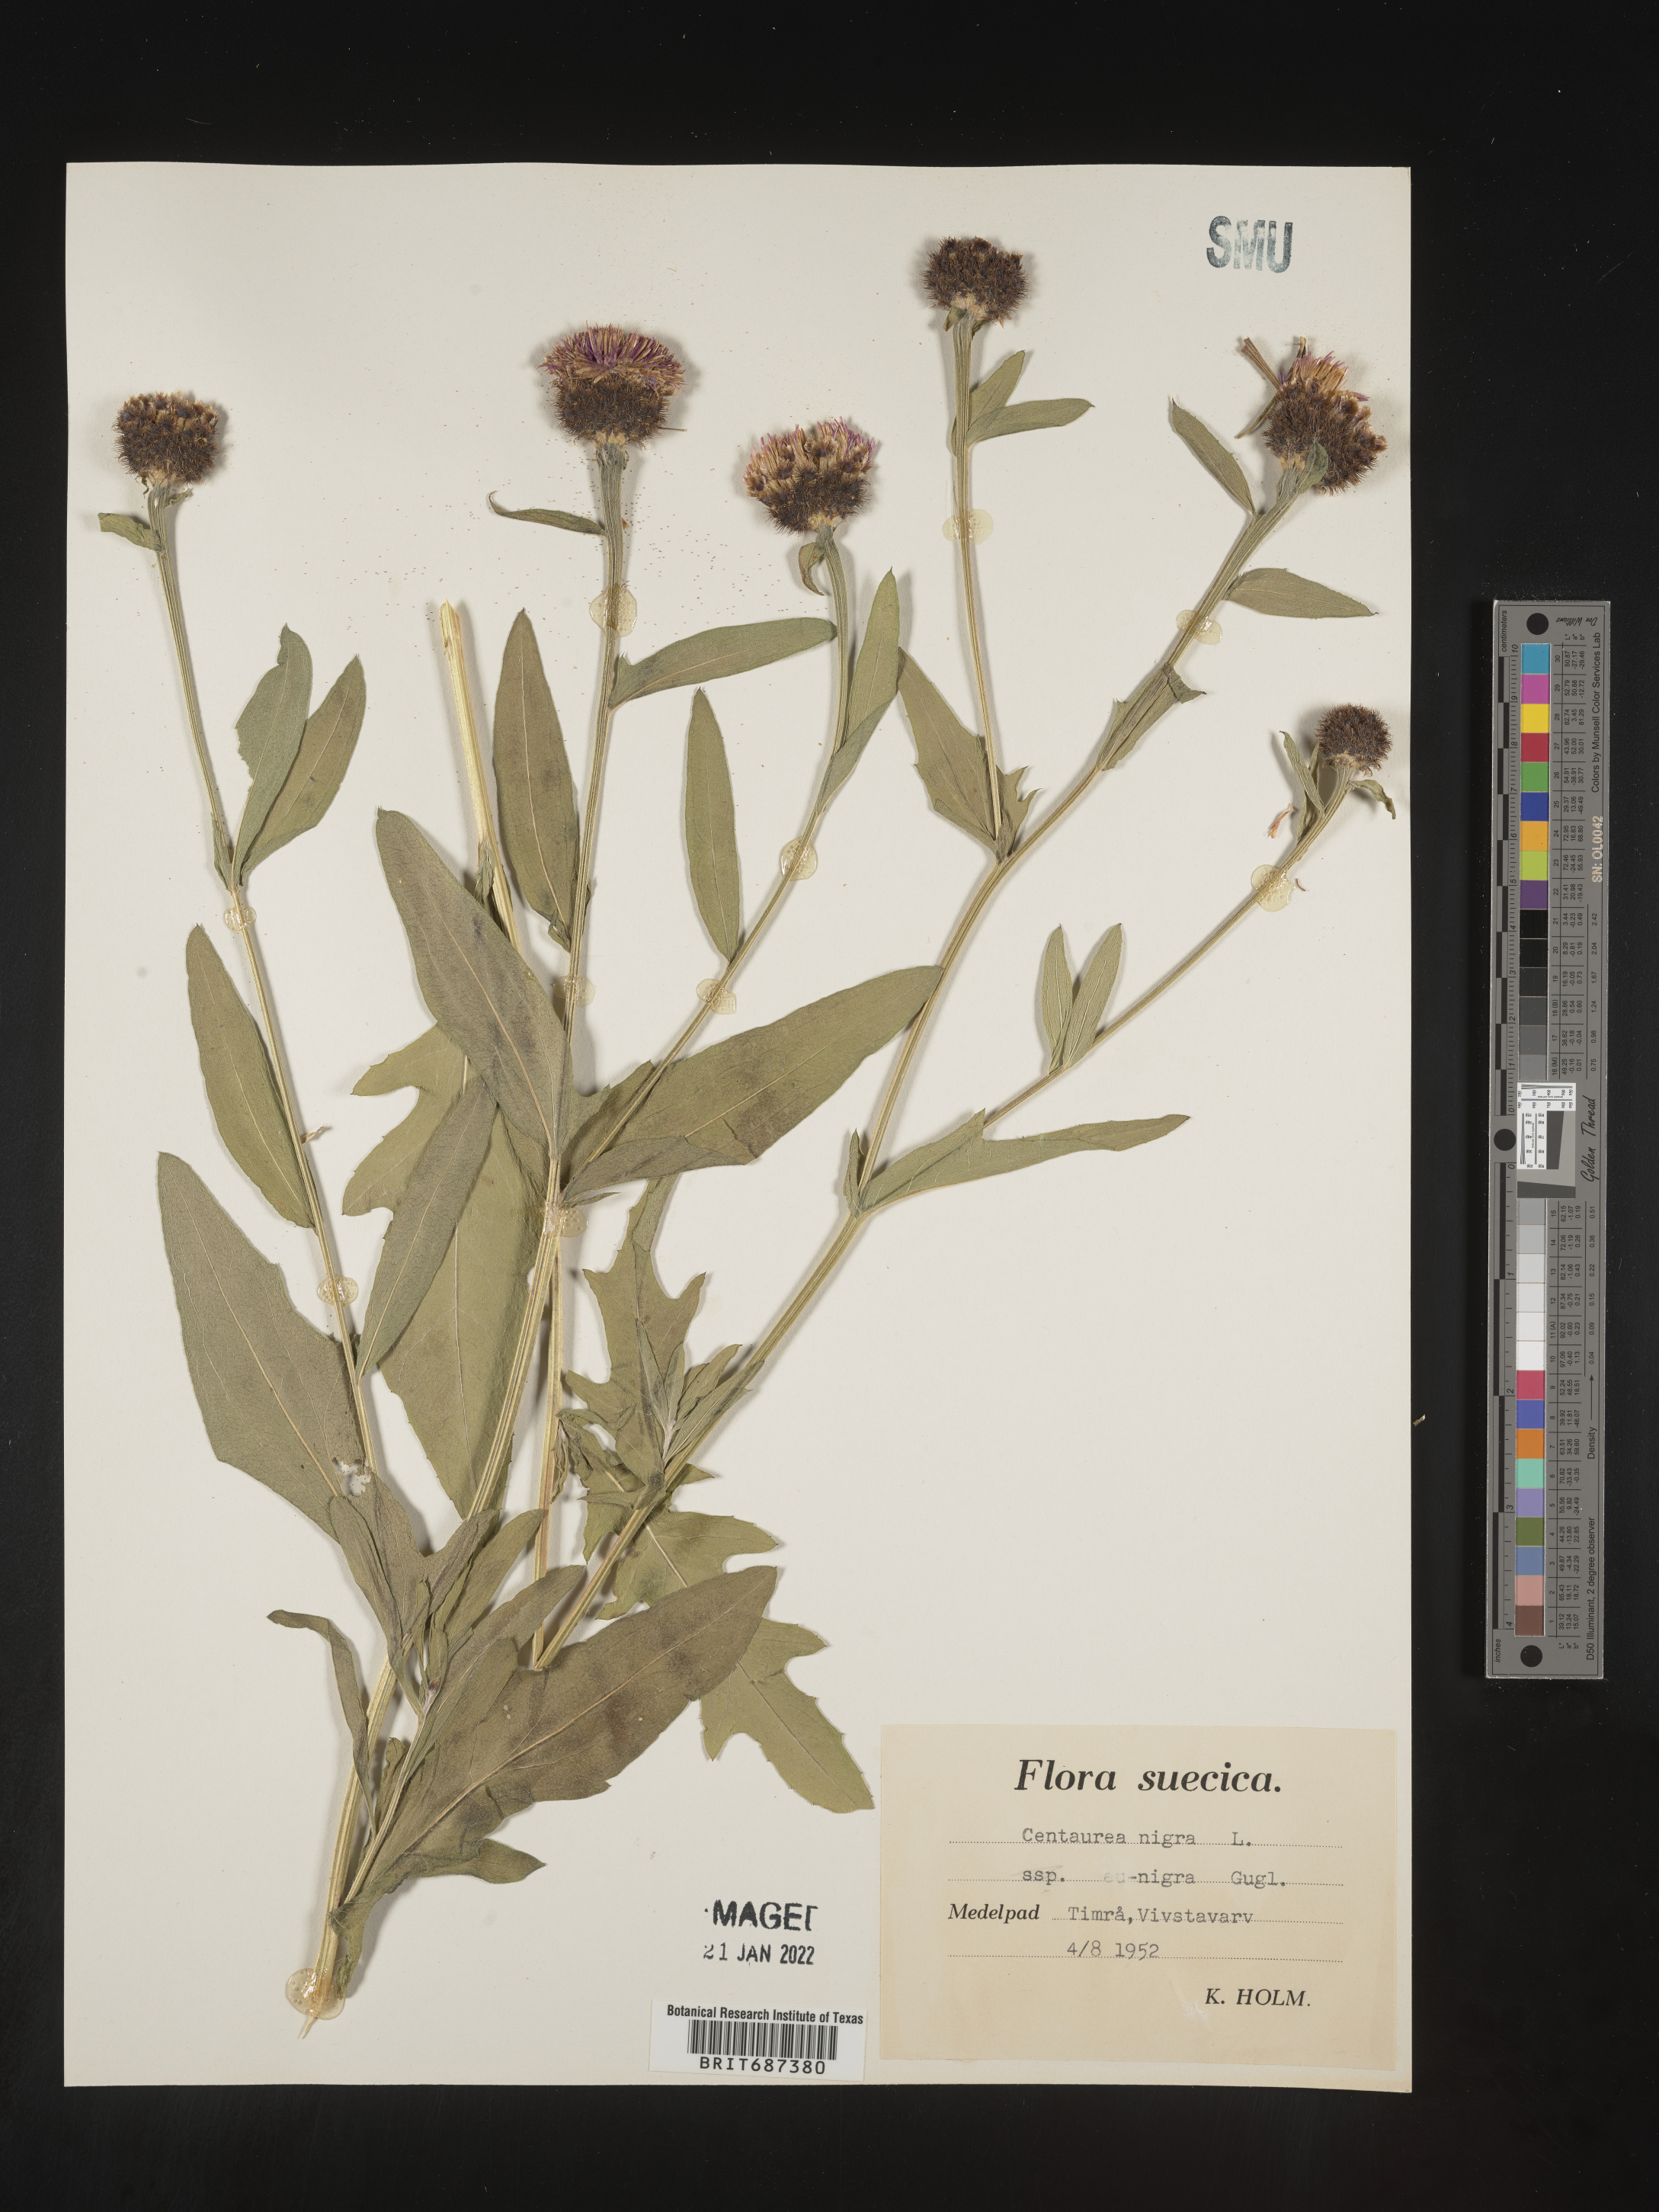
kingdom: Plantae
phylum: Tracheophyta
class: Magnoliopsida
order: Asterales
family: Asteraceae
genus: Centaurea
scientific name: Centaurea
